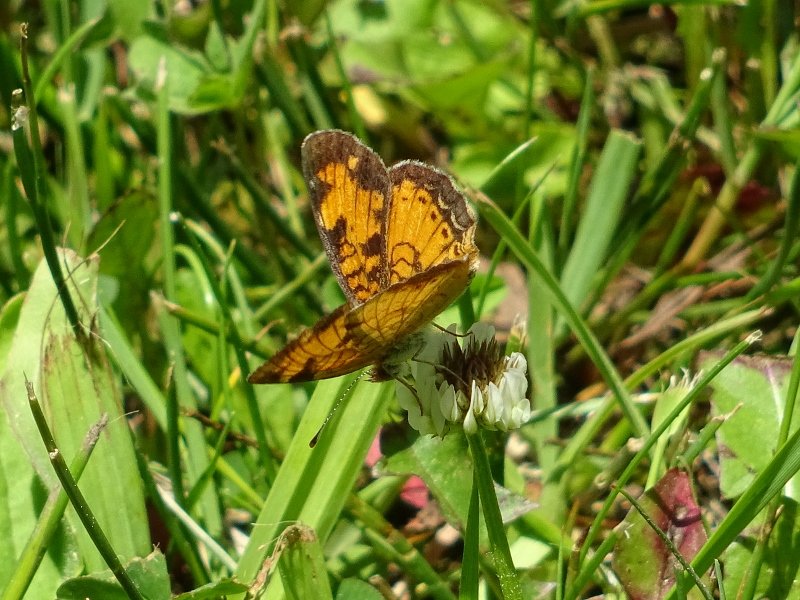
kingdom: Animalia
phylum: Arthropoda
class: Insecta
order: Lepidoptera
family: Nymphalidae
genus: Phyciodes
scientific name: Phyciodes tharos
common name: Pearl Crescent
